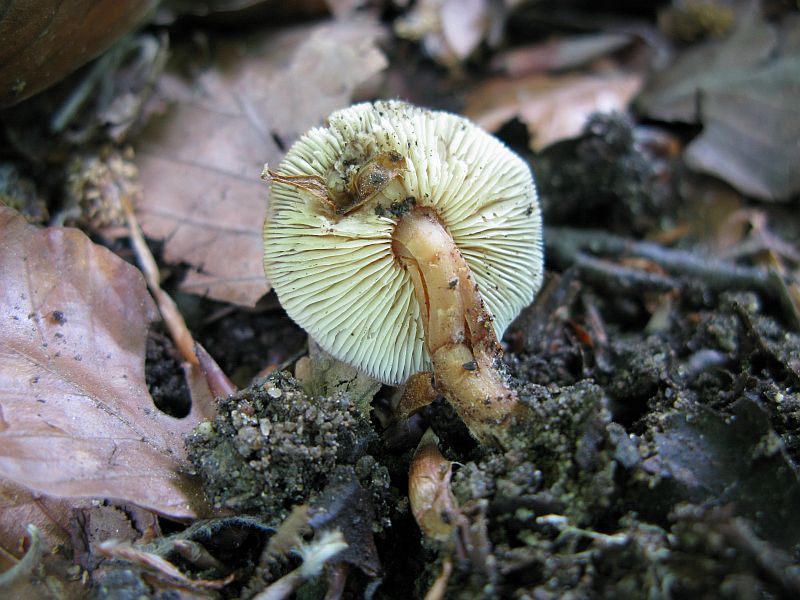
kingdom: Fungi
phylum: Basidiomycota
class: Agaricomycetes
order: Agaricales
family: Omphalotaceae
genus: Gymnopus
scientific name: Gymnopus ocior
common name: mørk fladhat
